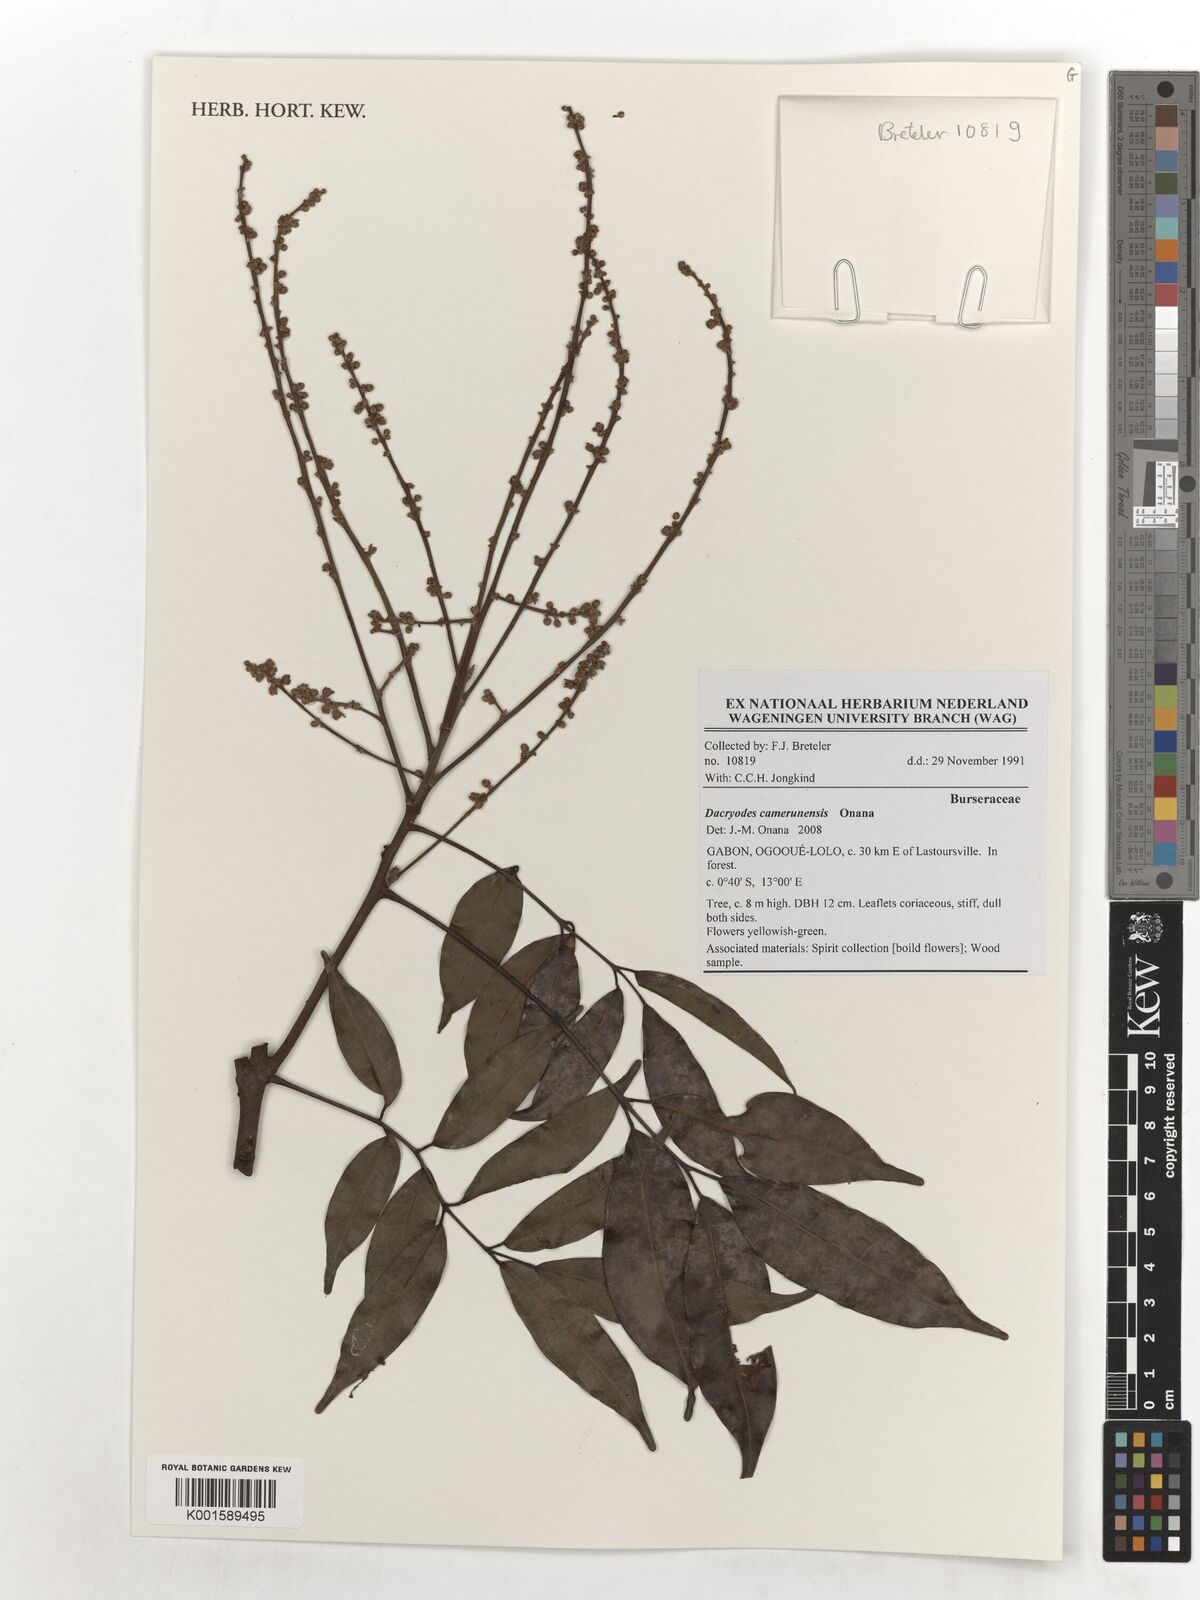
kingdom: Plantae
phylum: Tracheophyta
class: Magnoliopsida
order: Sapindales
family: Burseraceae
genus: Pachylobus
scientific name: Pachylobus camerunensis
